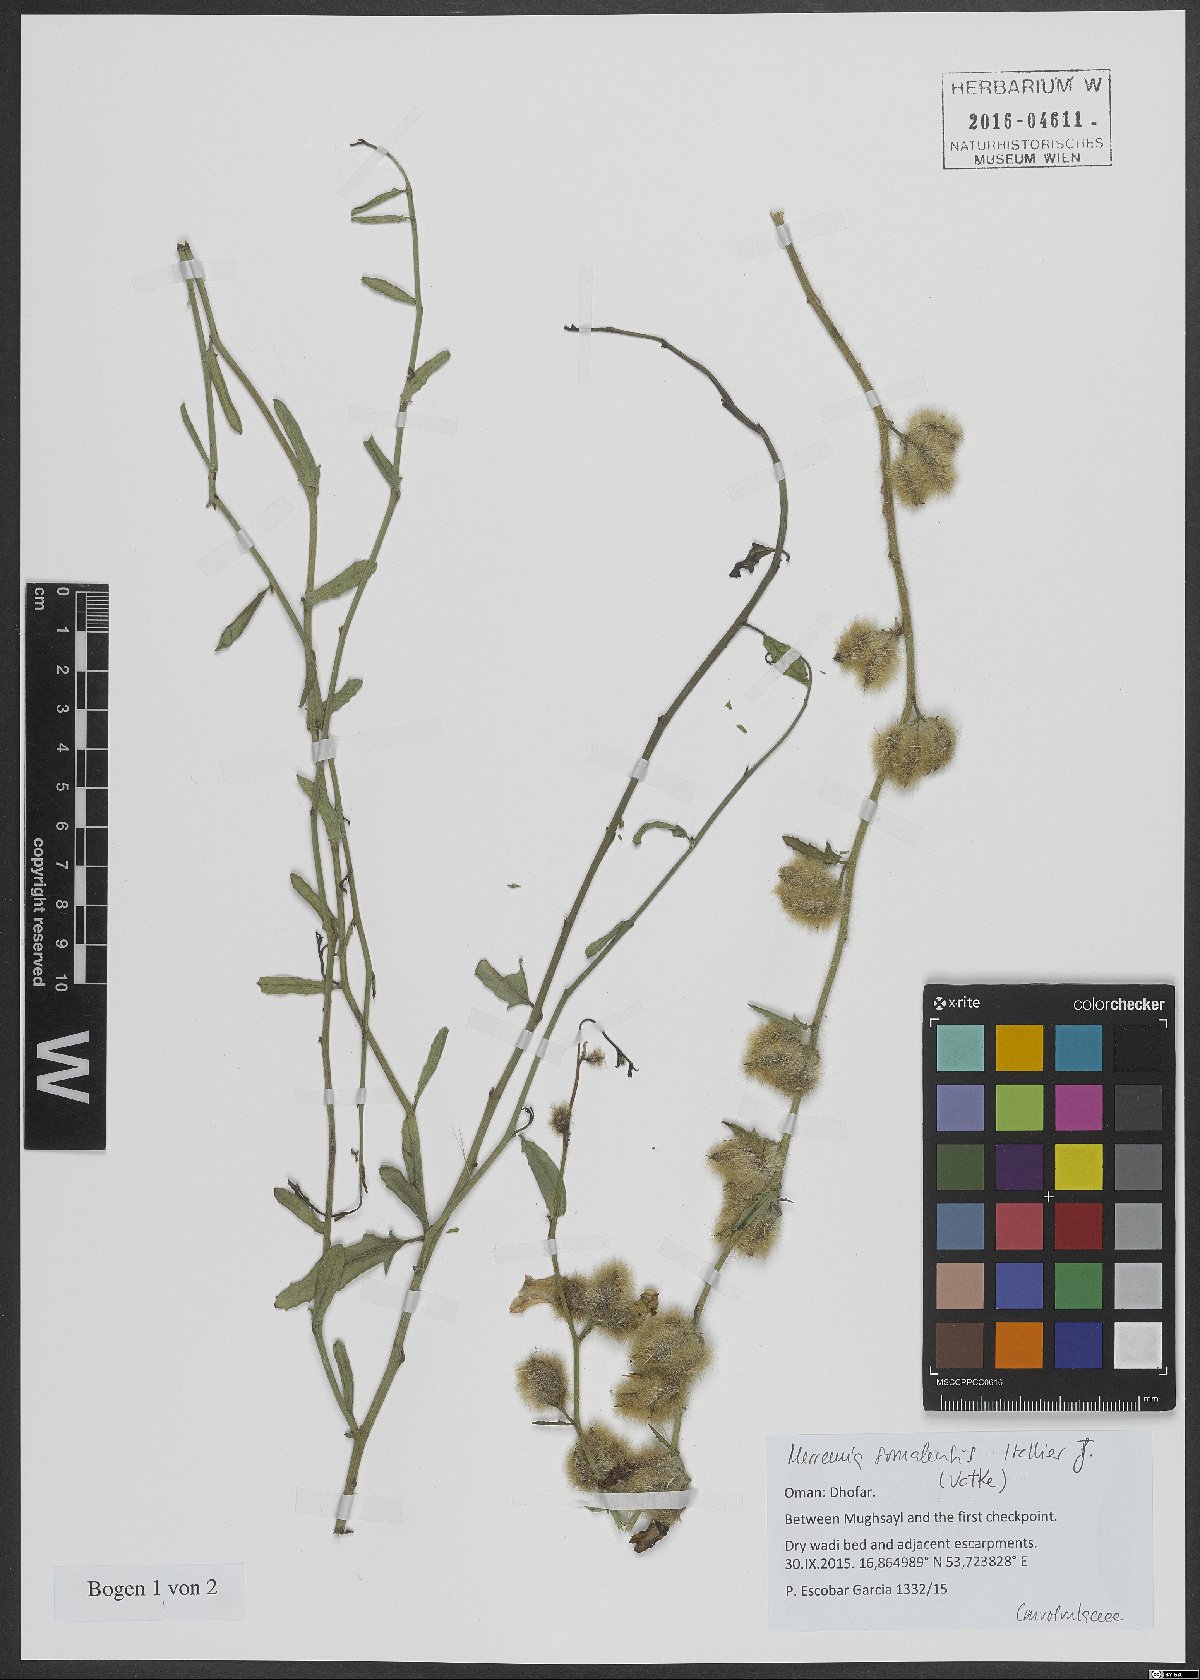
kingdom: Plantae
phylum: Tracheophyta
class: Magnoliopsida
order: Solanales
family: Convolvulaceae
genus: Distimake
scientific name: Distimake somalensis
